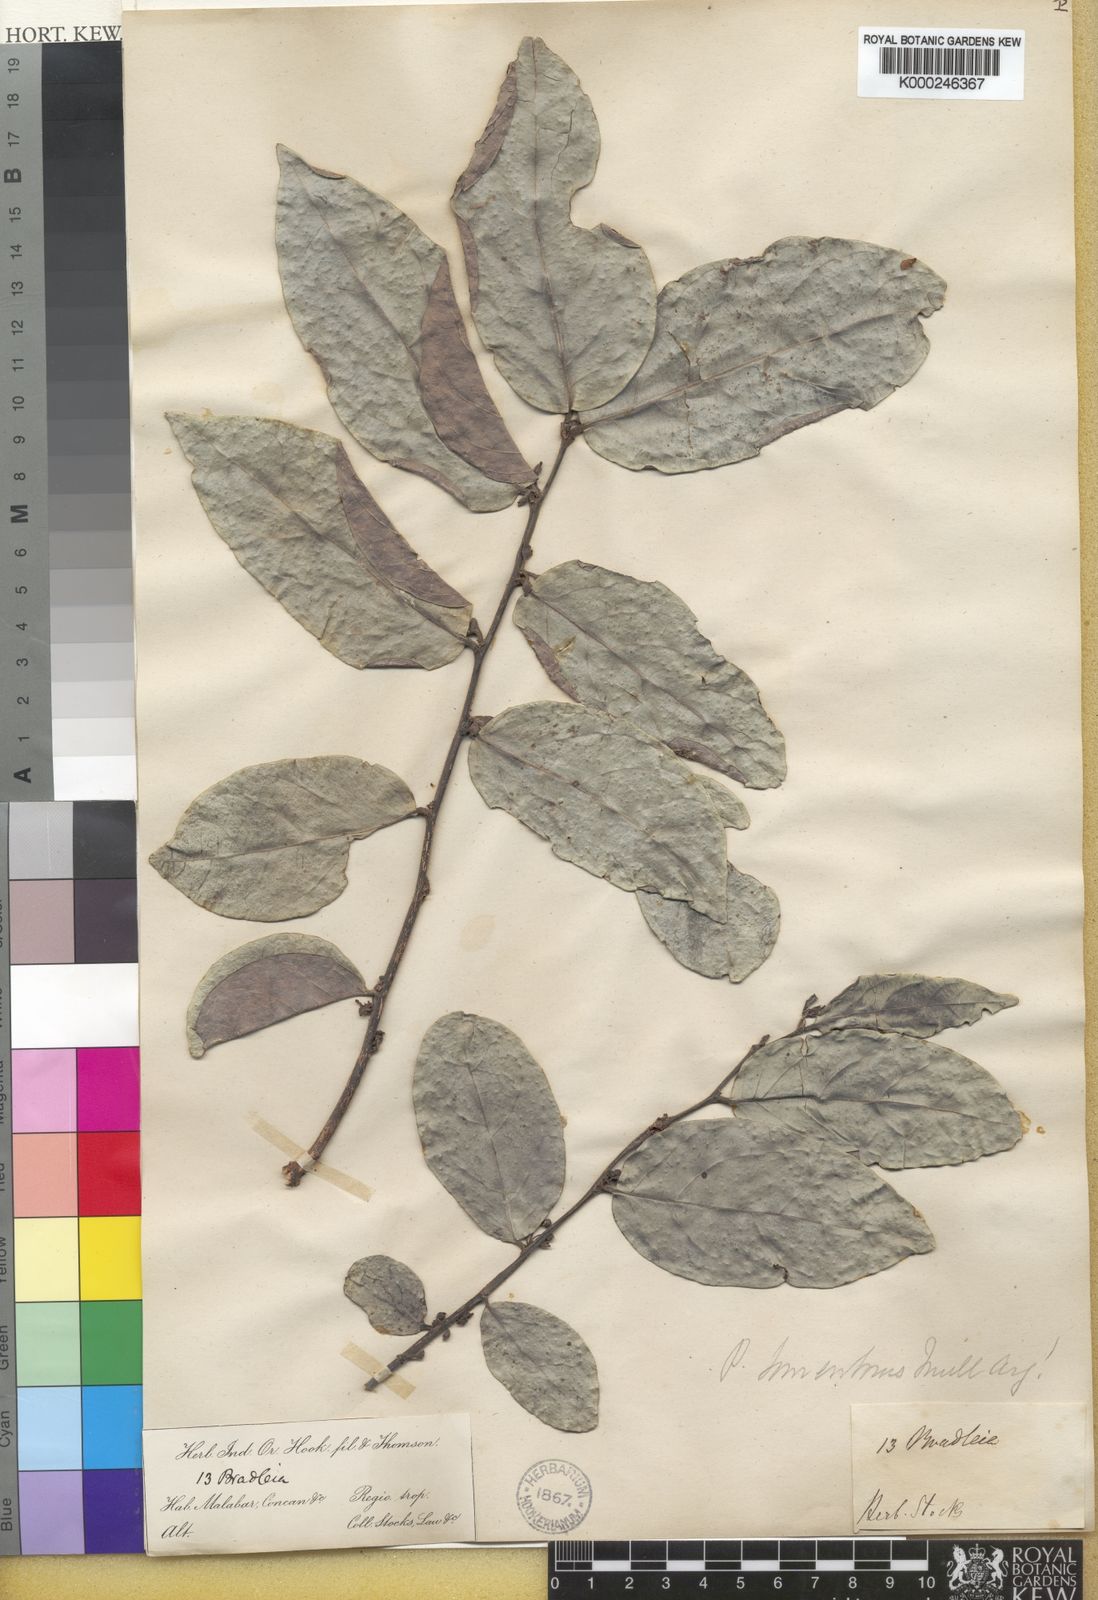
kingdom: Plantae
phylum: Tracheophyta
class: Magnoliopsida
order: Malpighiales
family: Phyllanthaceae
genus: Glochidion
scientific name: Glochidion zeylanicum
